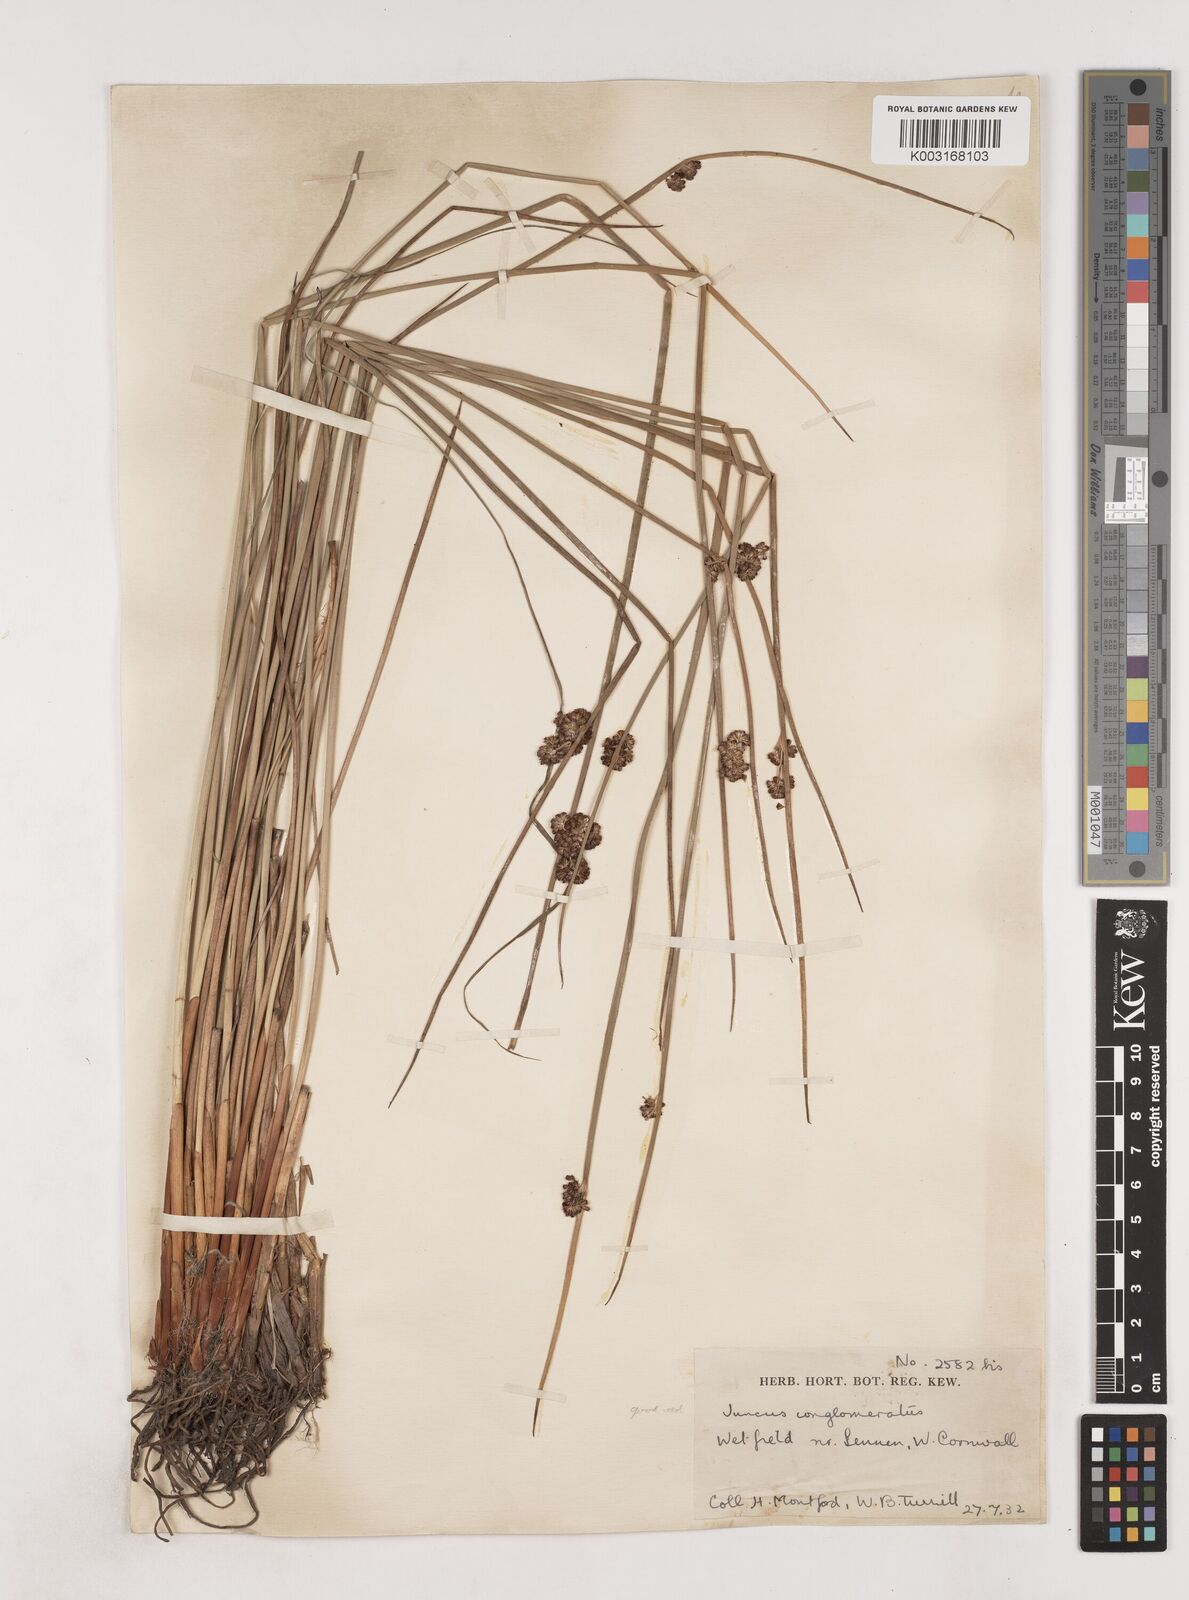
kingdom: Plantae
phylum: Tracheophyta
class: Liliopsida
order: Poales
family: Juncaceae
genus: Juncus
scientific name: Juncus conglomeratus
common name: Compact rush
